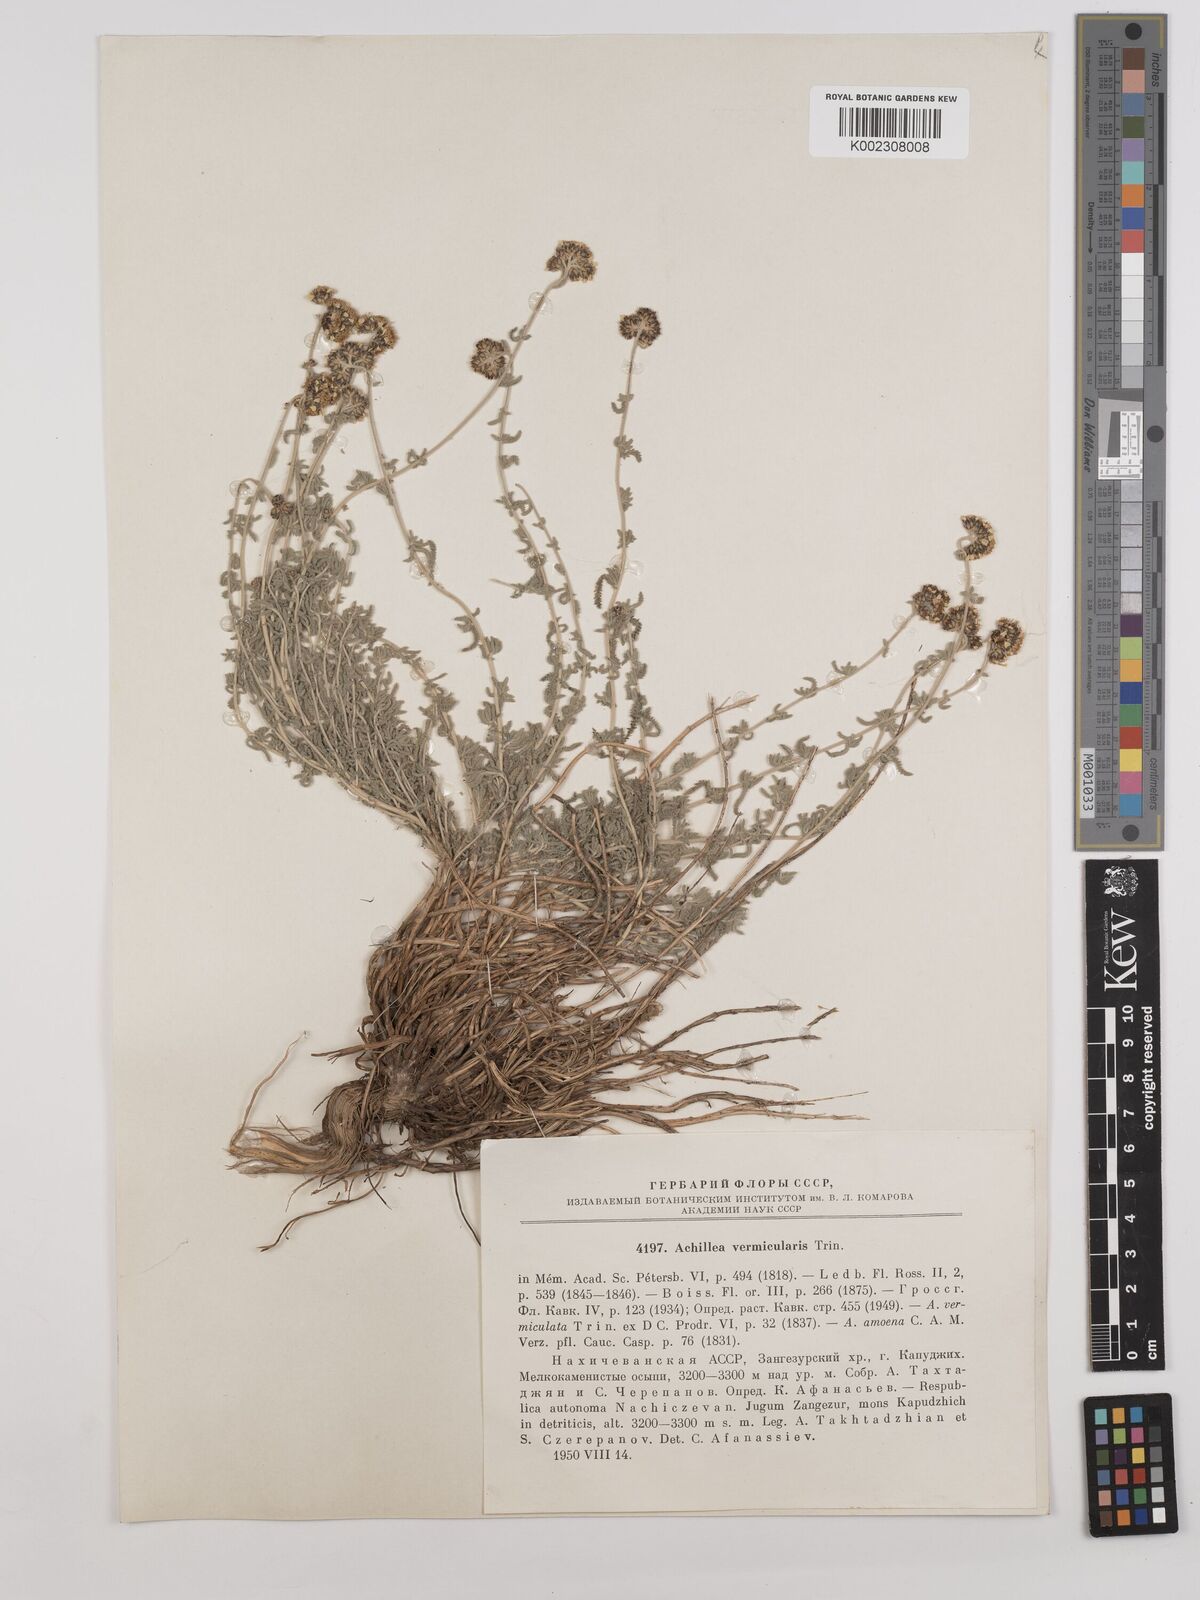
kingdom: Plantae
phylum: Tracheophyta
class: Magnoliopsida
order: Asterales
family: Asteraceae
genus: Achillea
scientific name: Achillea vermicularis
